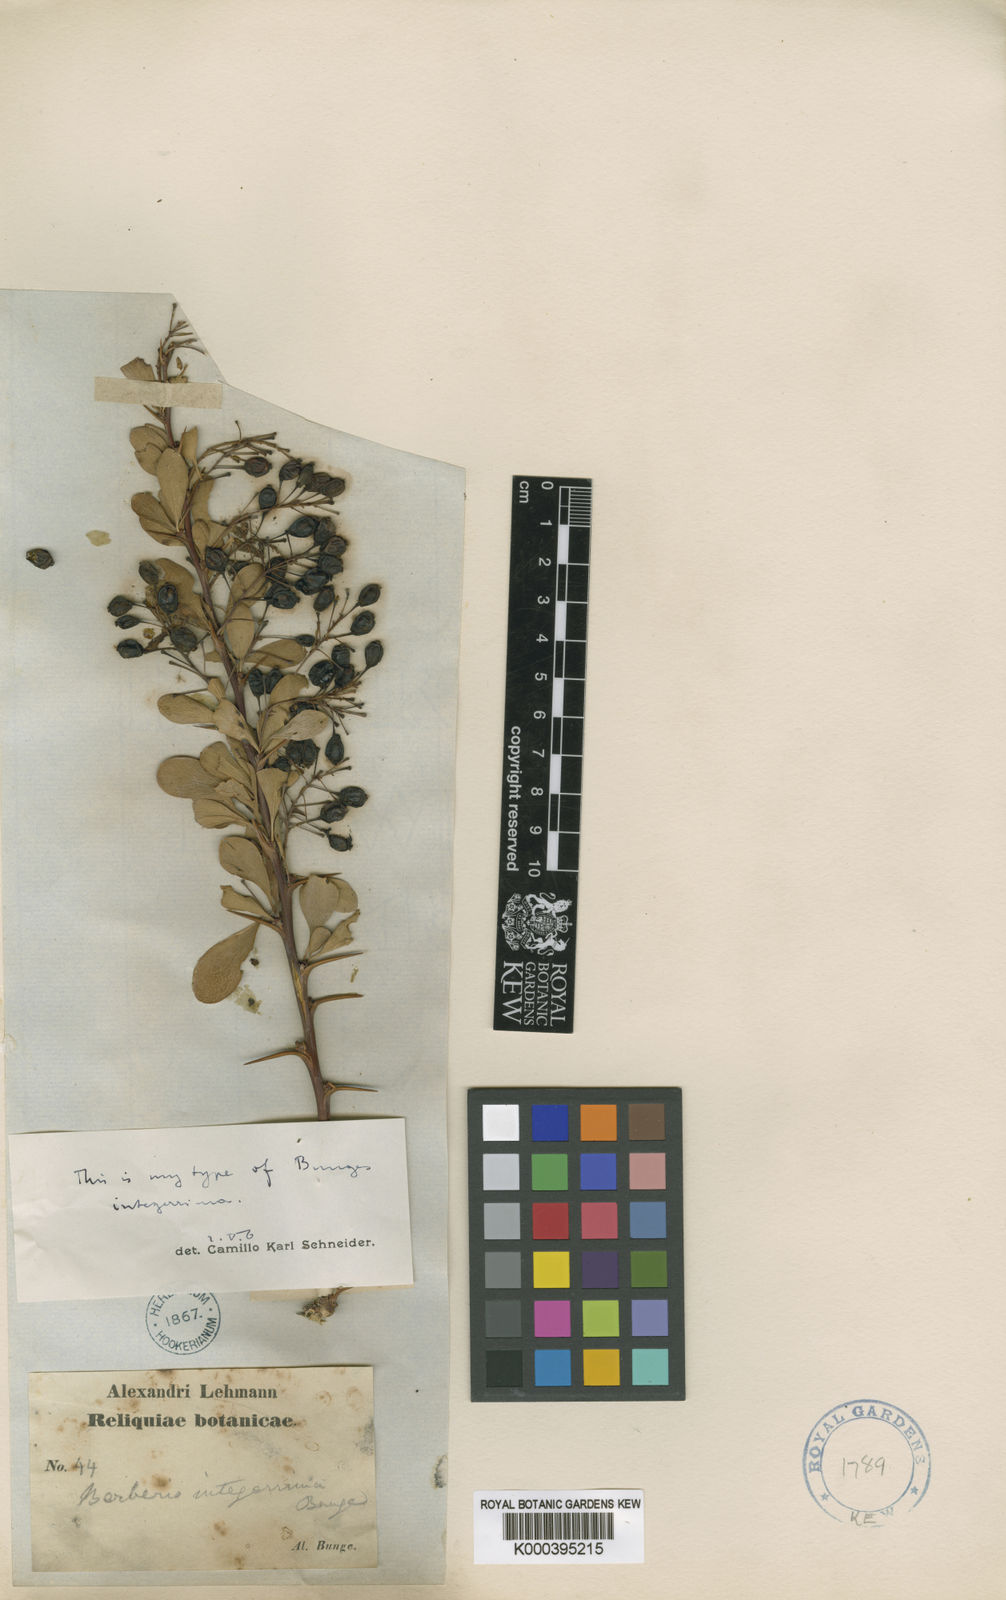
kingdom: Plantae
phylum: Tracheophyta
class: Magnoliopsida
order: Ranunculales
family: Berberidaceae
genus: Berberis
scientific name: Berberis integerrima
